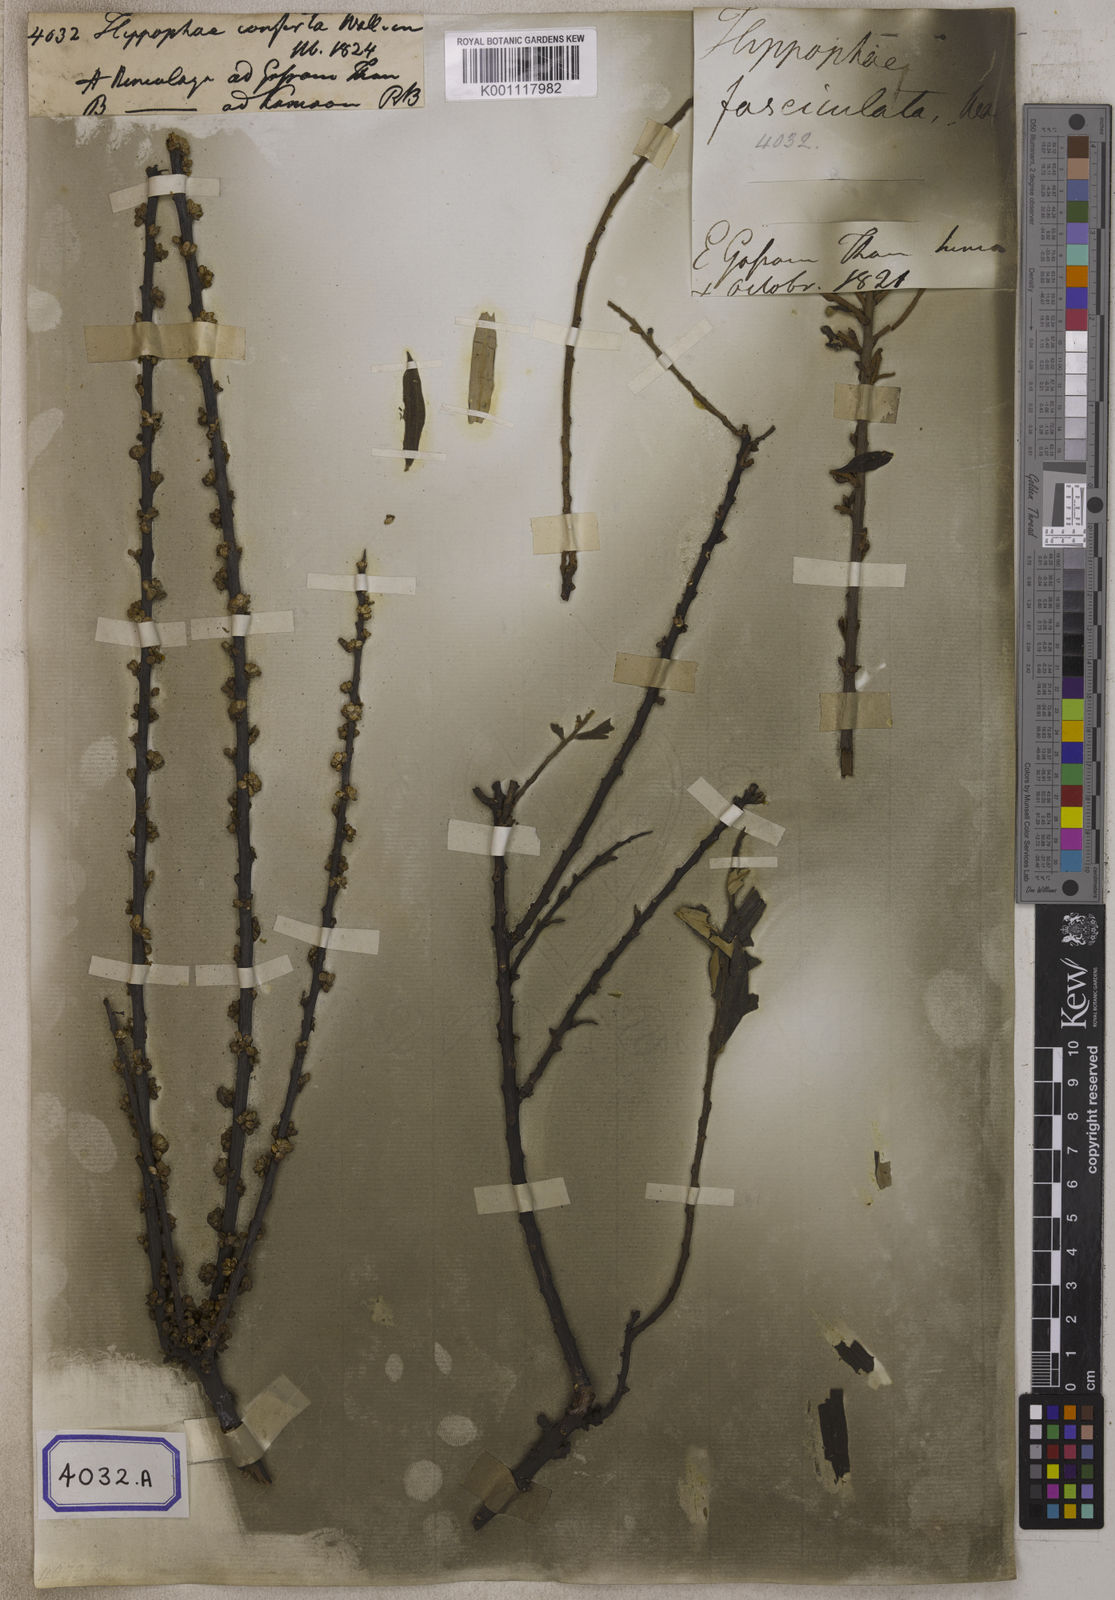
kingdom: Plantae
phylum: Tracheophyta
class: Magnoliopsida
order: Rosales
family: Elaeagnaceae
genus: Hippophae
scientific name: Hippophae salicifolia
